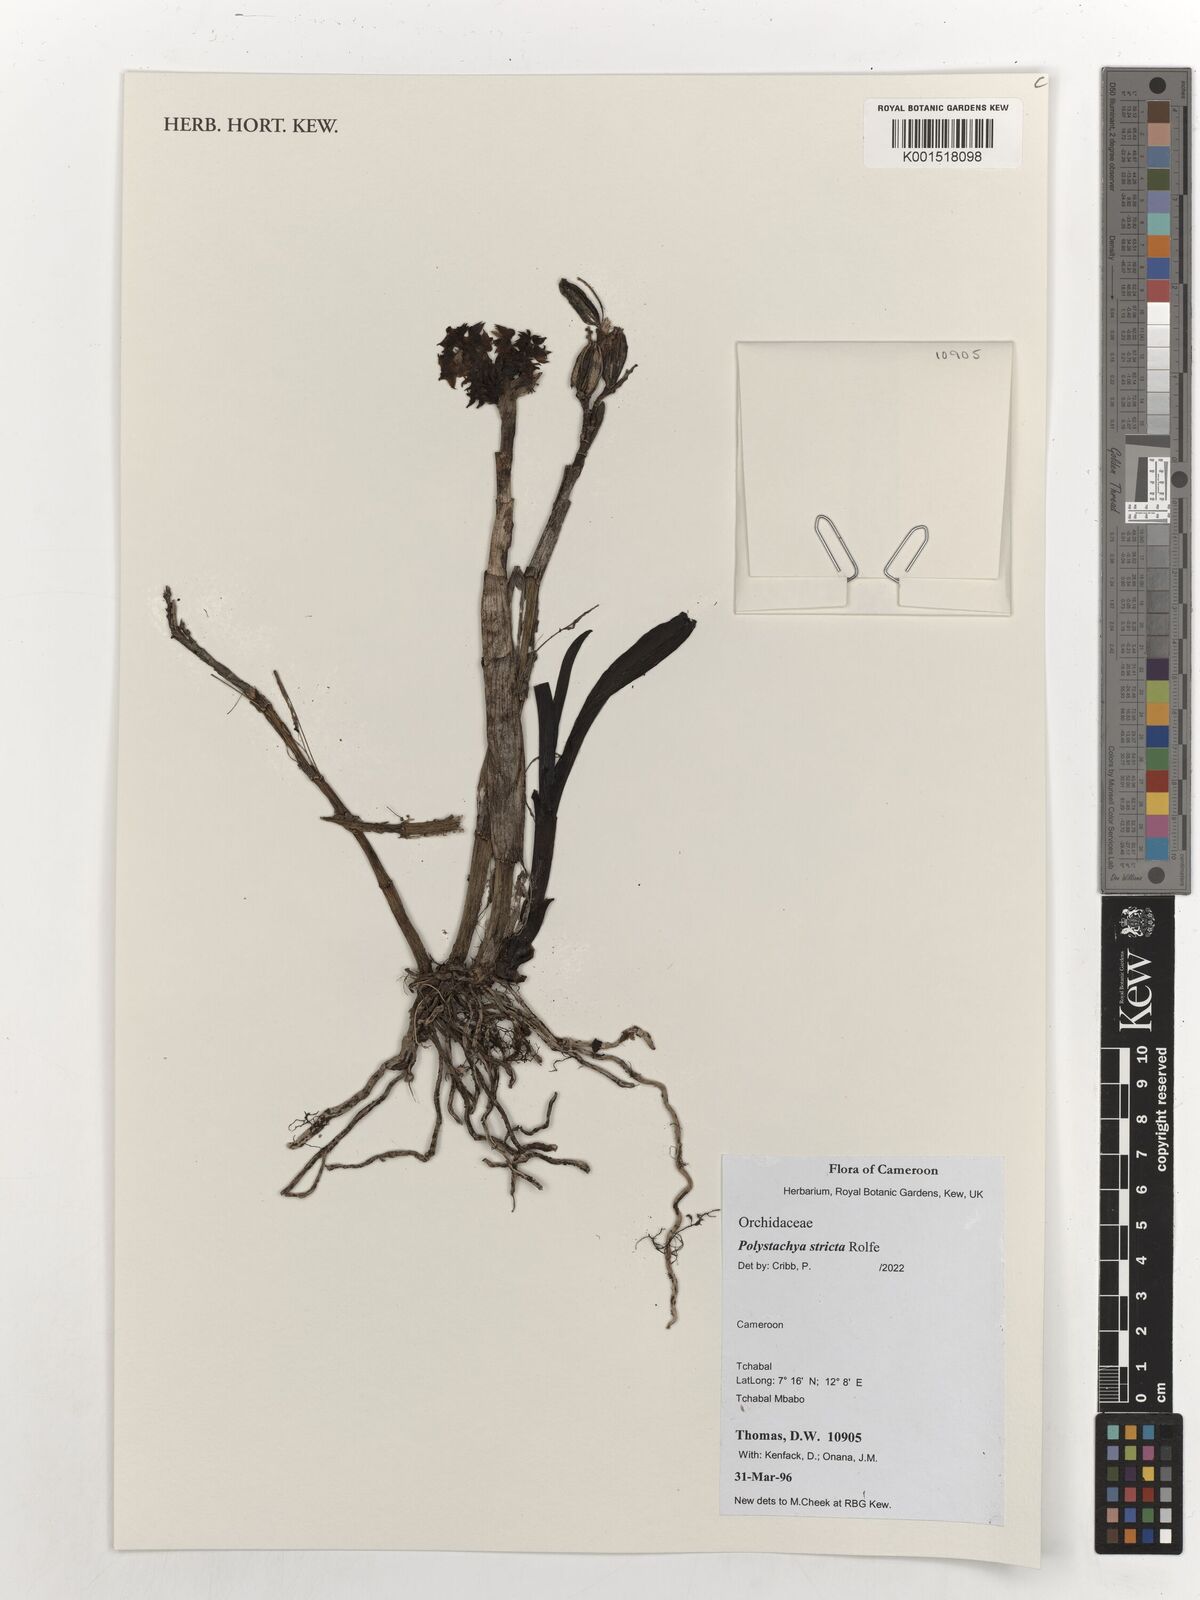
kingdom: Plantae
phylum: Tracheophyta
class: Liliopsida
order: Asparagales
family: Orchidaceae
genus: Polystachya
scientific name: Polystachya bennettiana
